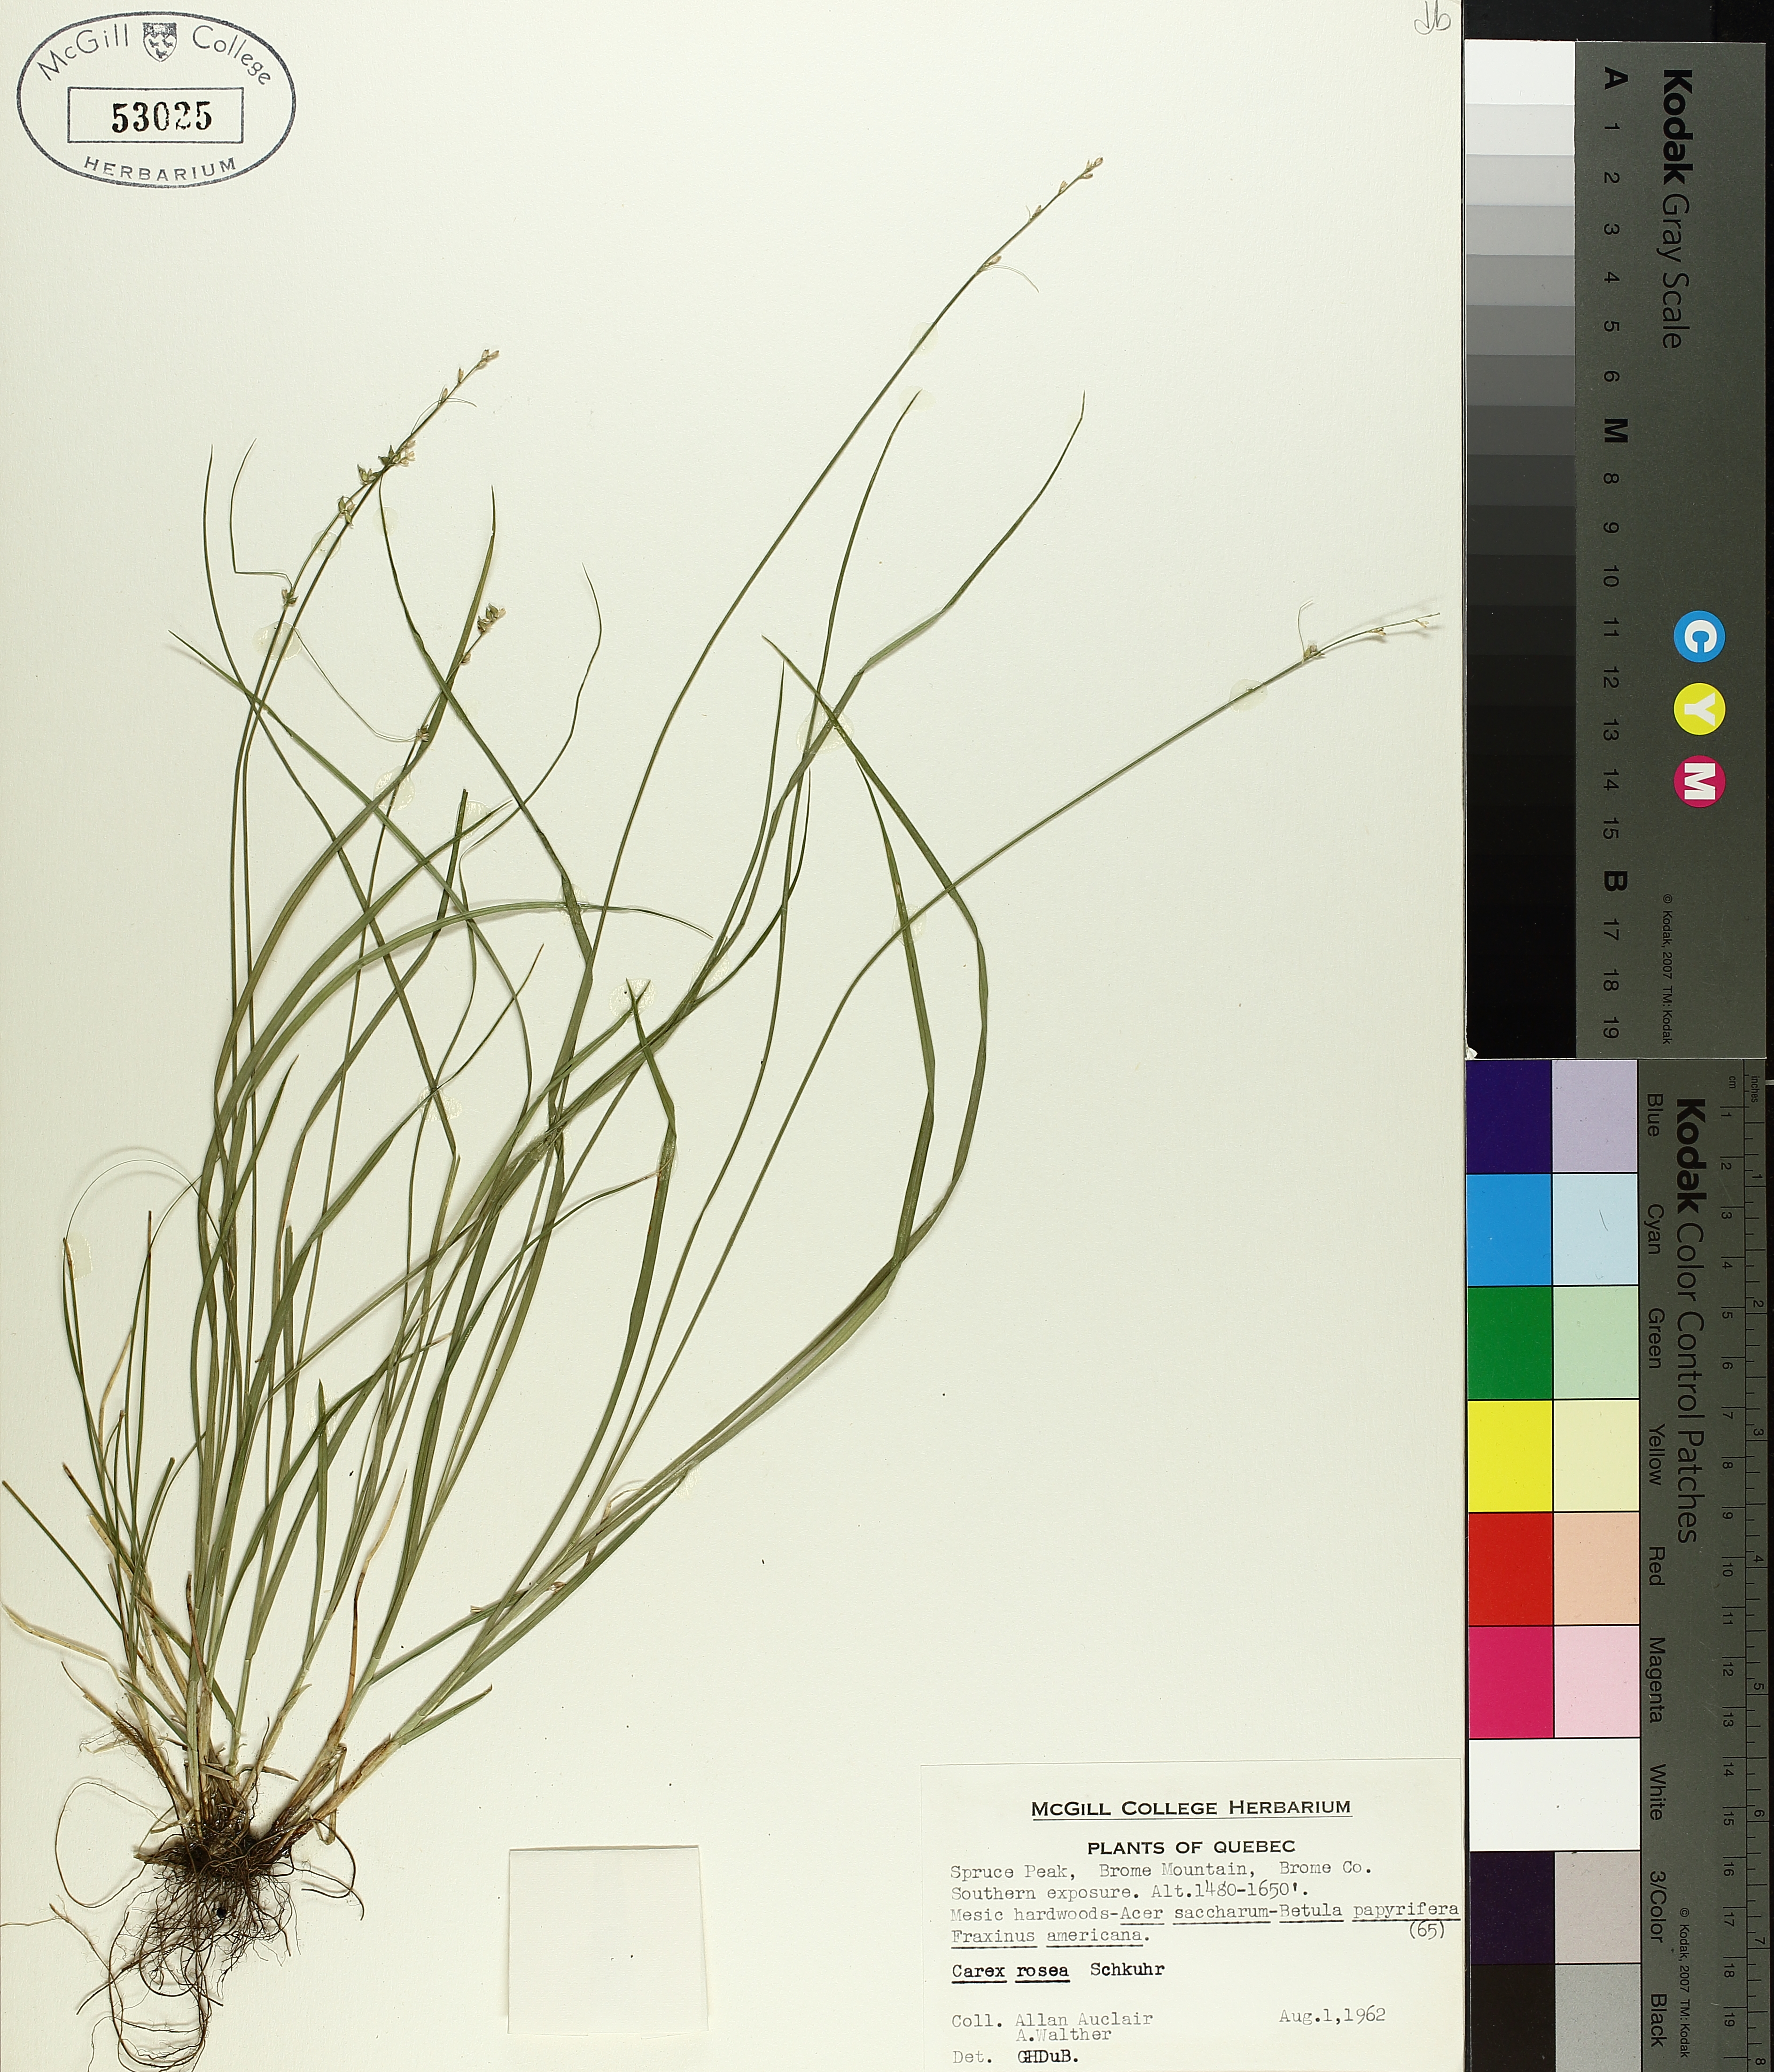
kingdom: Plantae
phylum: Tracheophyta
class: Liliopsida
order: Poales
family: Cyperaceae
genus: Carex
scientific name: Carex rosea
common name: Curly-styled wood sedge
